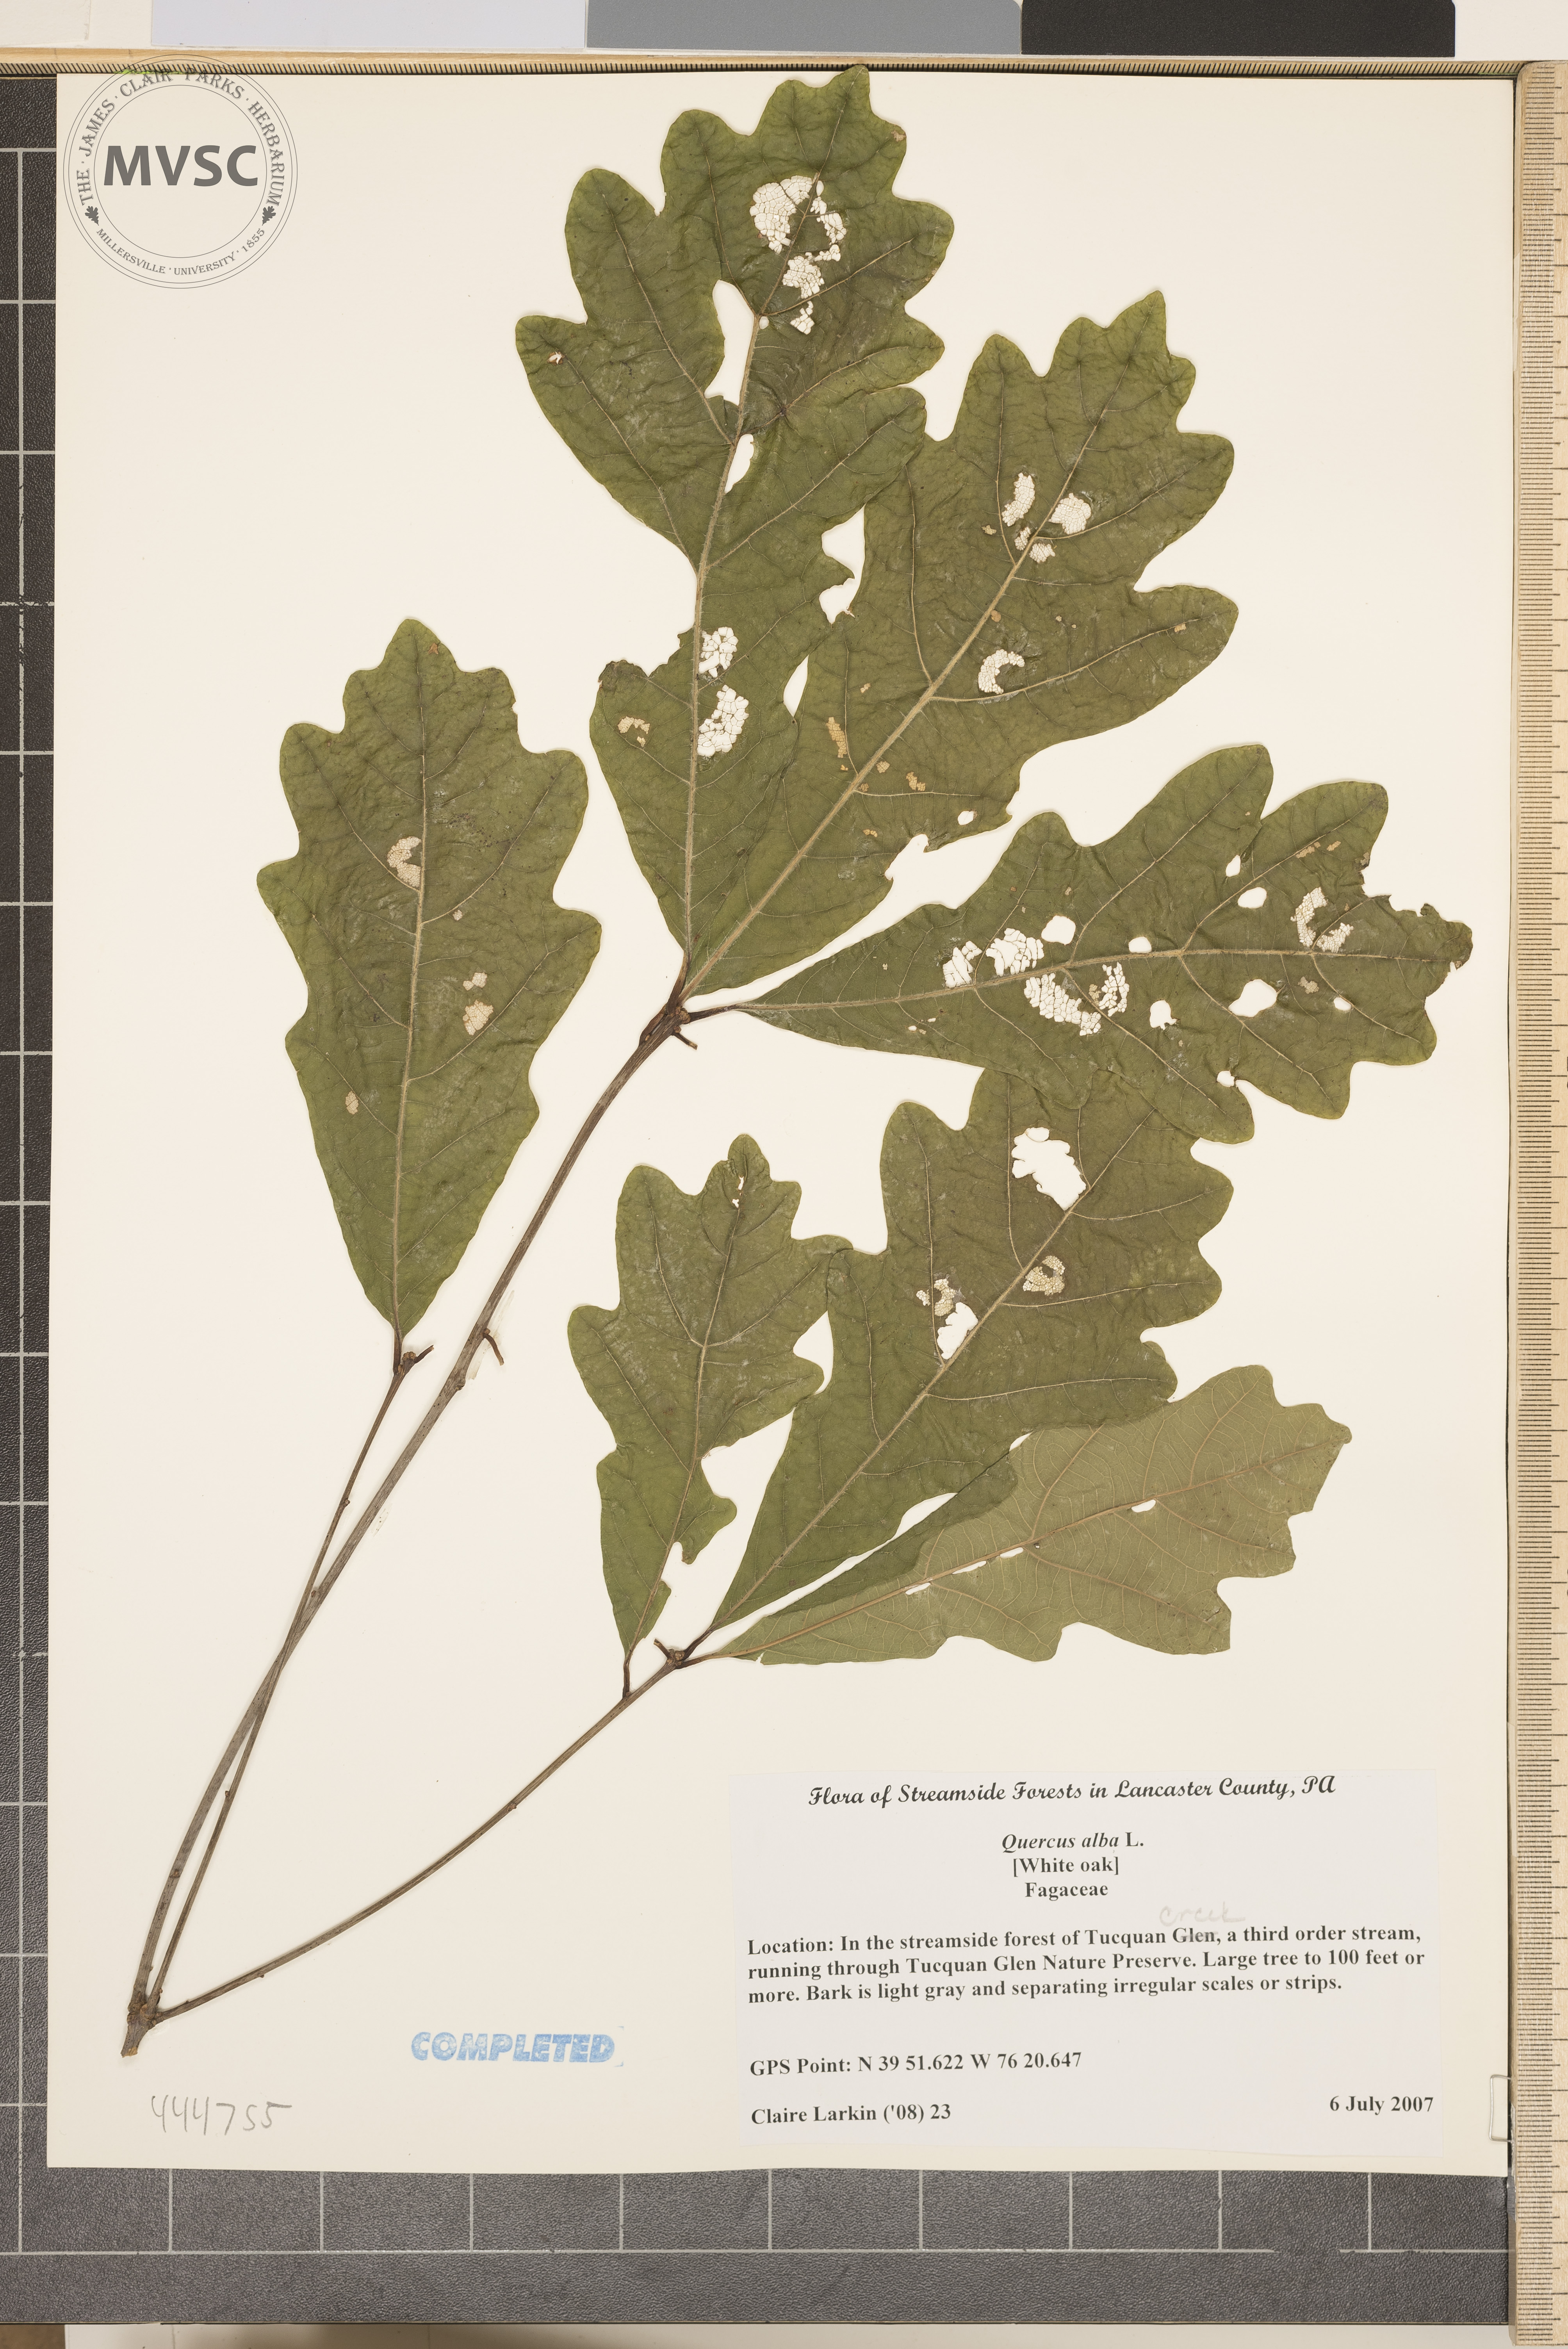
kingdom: Plantae
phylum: Tracheophyta
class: Magnoliopsida
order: Fagales
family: Fagaceae
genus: Quercus
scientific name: Quercus alba
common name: White oak
